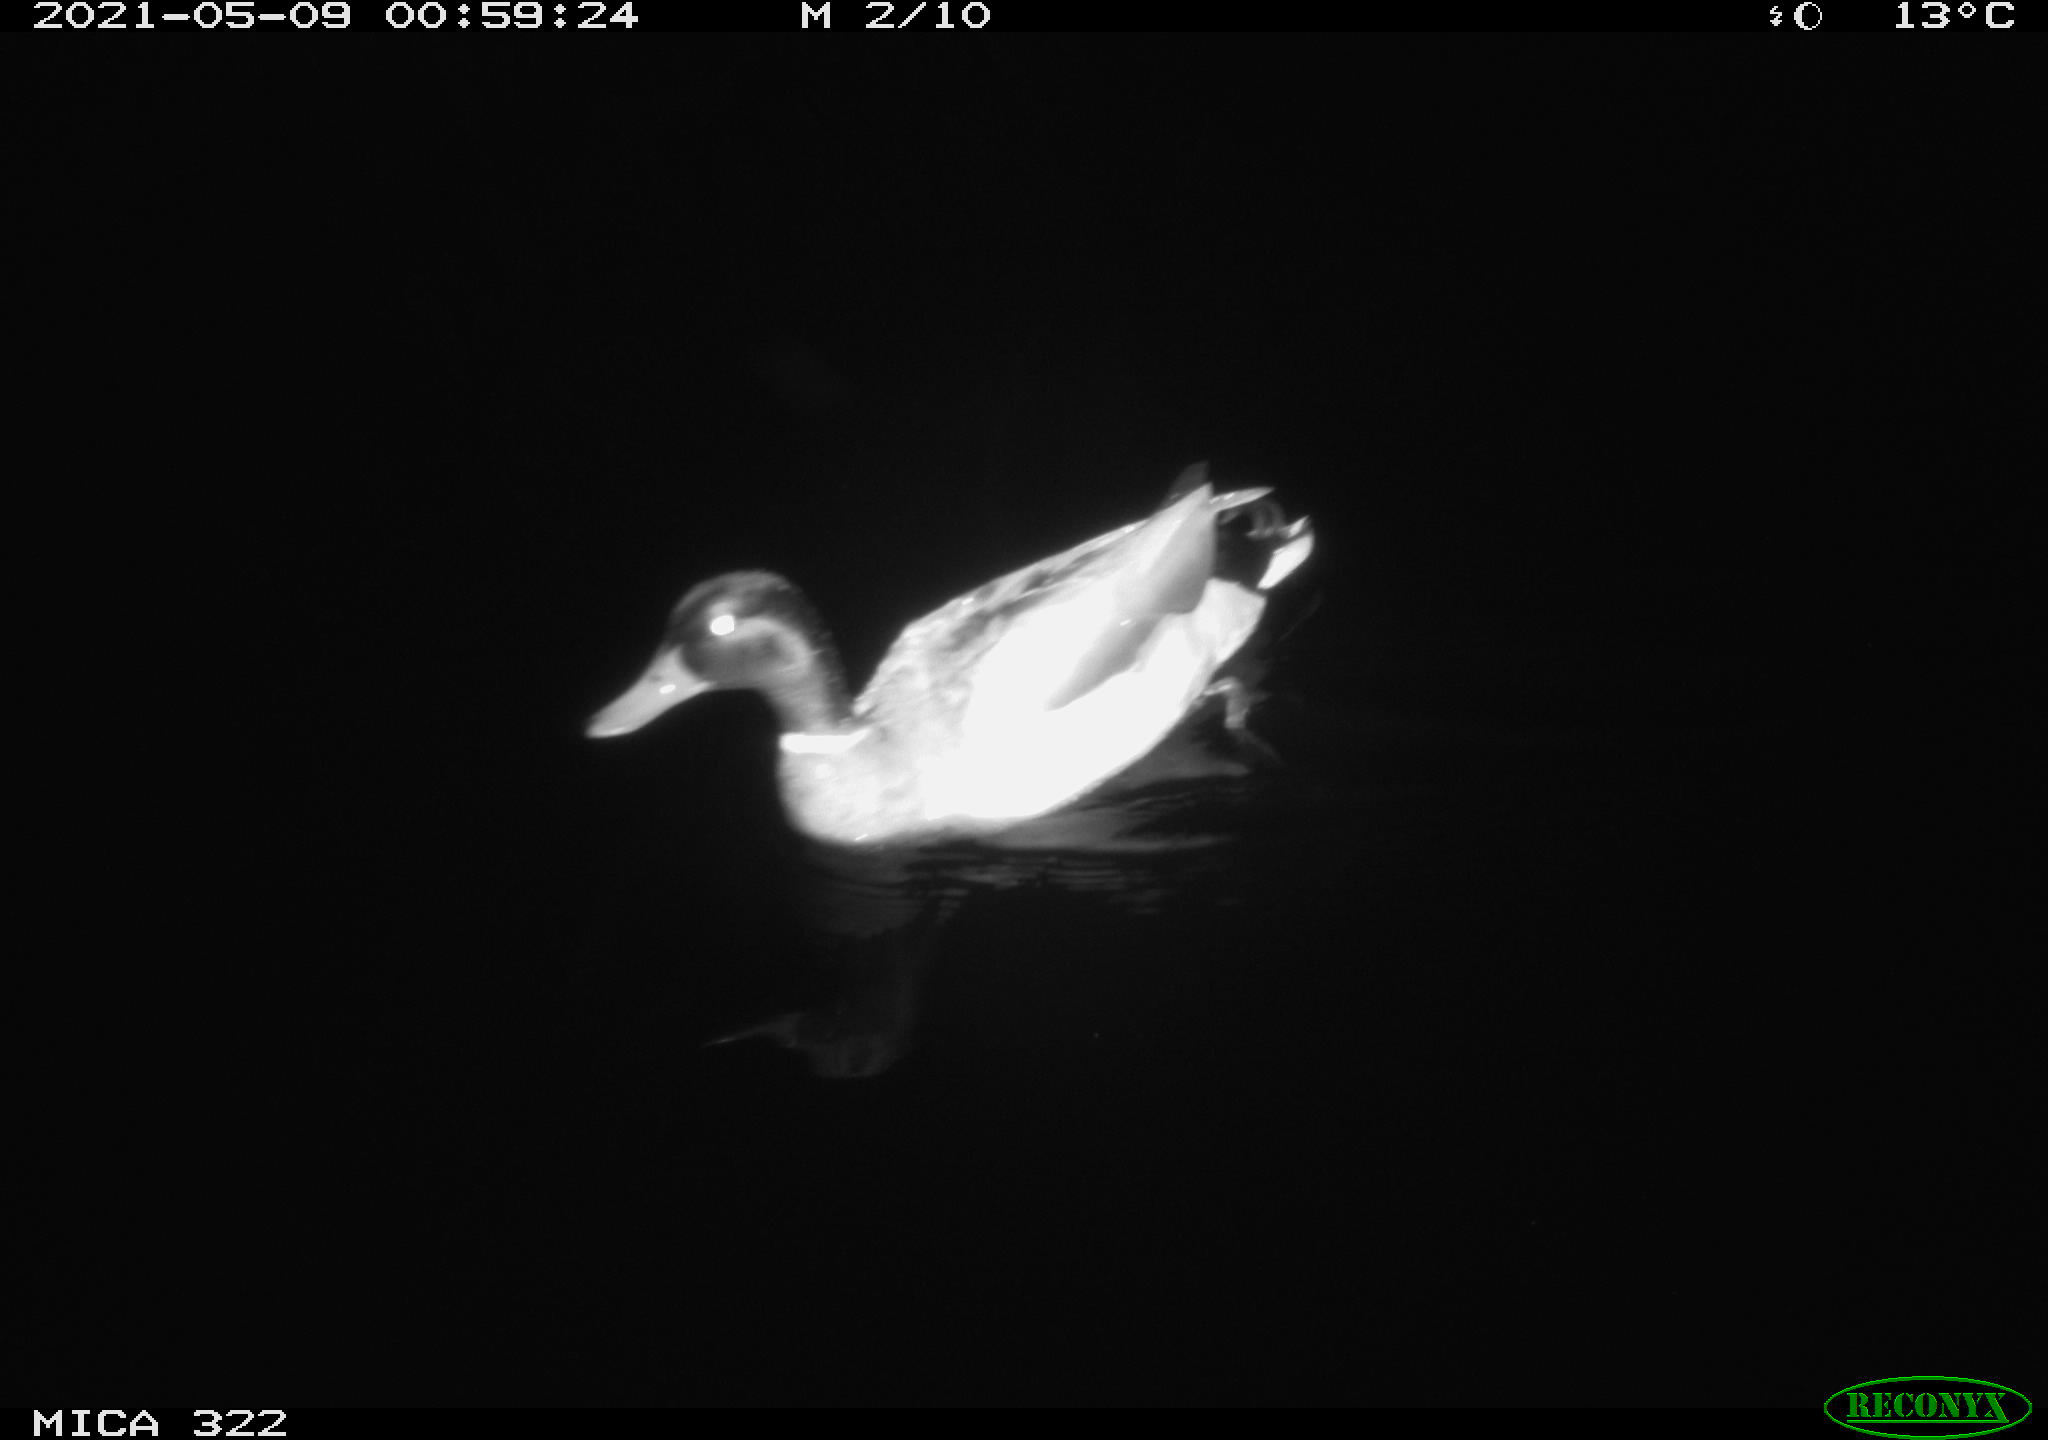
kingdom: Animalia
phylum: Chordata
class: Aves
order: Anseriformes
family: Anatidae
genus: Anas
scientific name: Anas platyrhynchos
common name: Mallard
